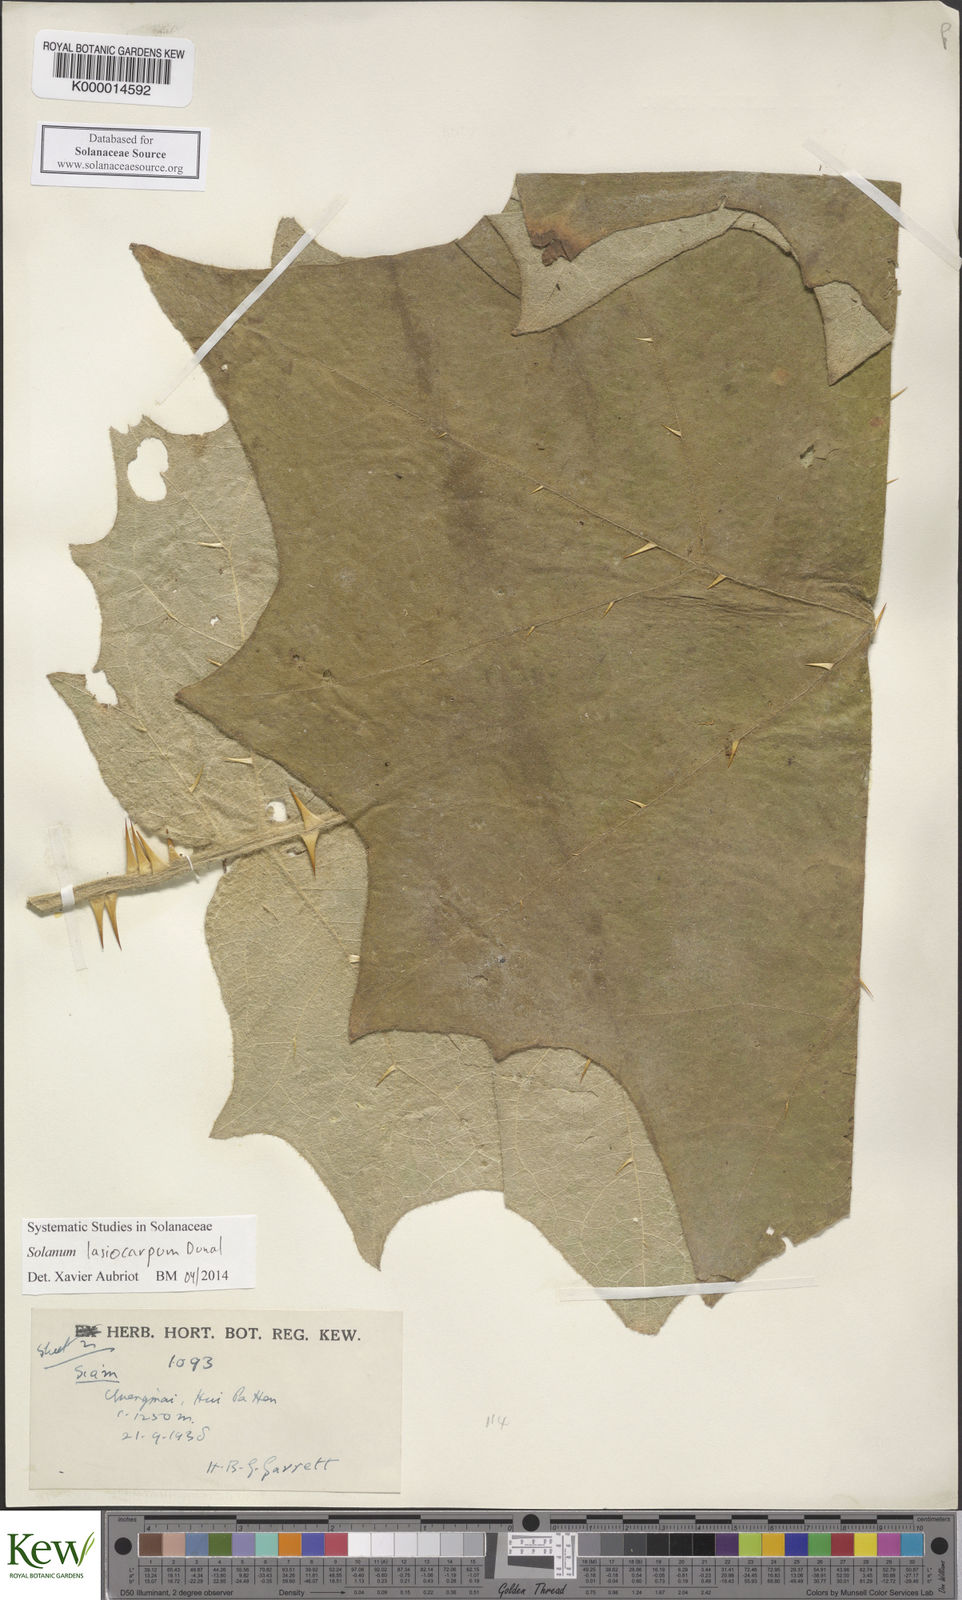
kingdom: Plantae
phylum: Tracheophyta
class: Magnoliopsida
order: Solanales
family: Solanaceae
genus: Solanum
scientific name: Solanum lasiocarpum
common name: Indian nightshade
